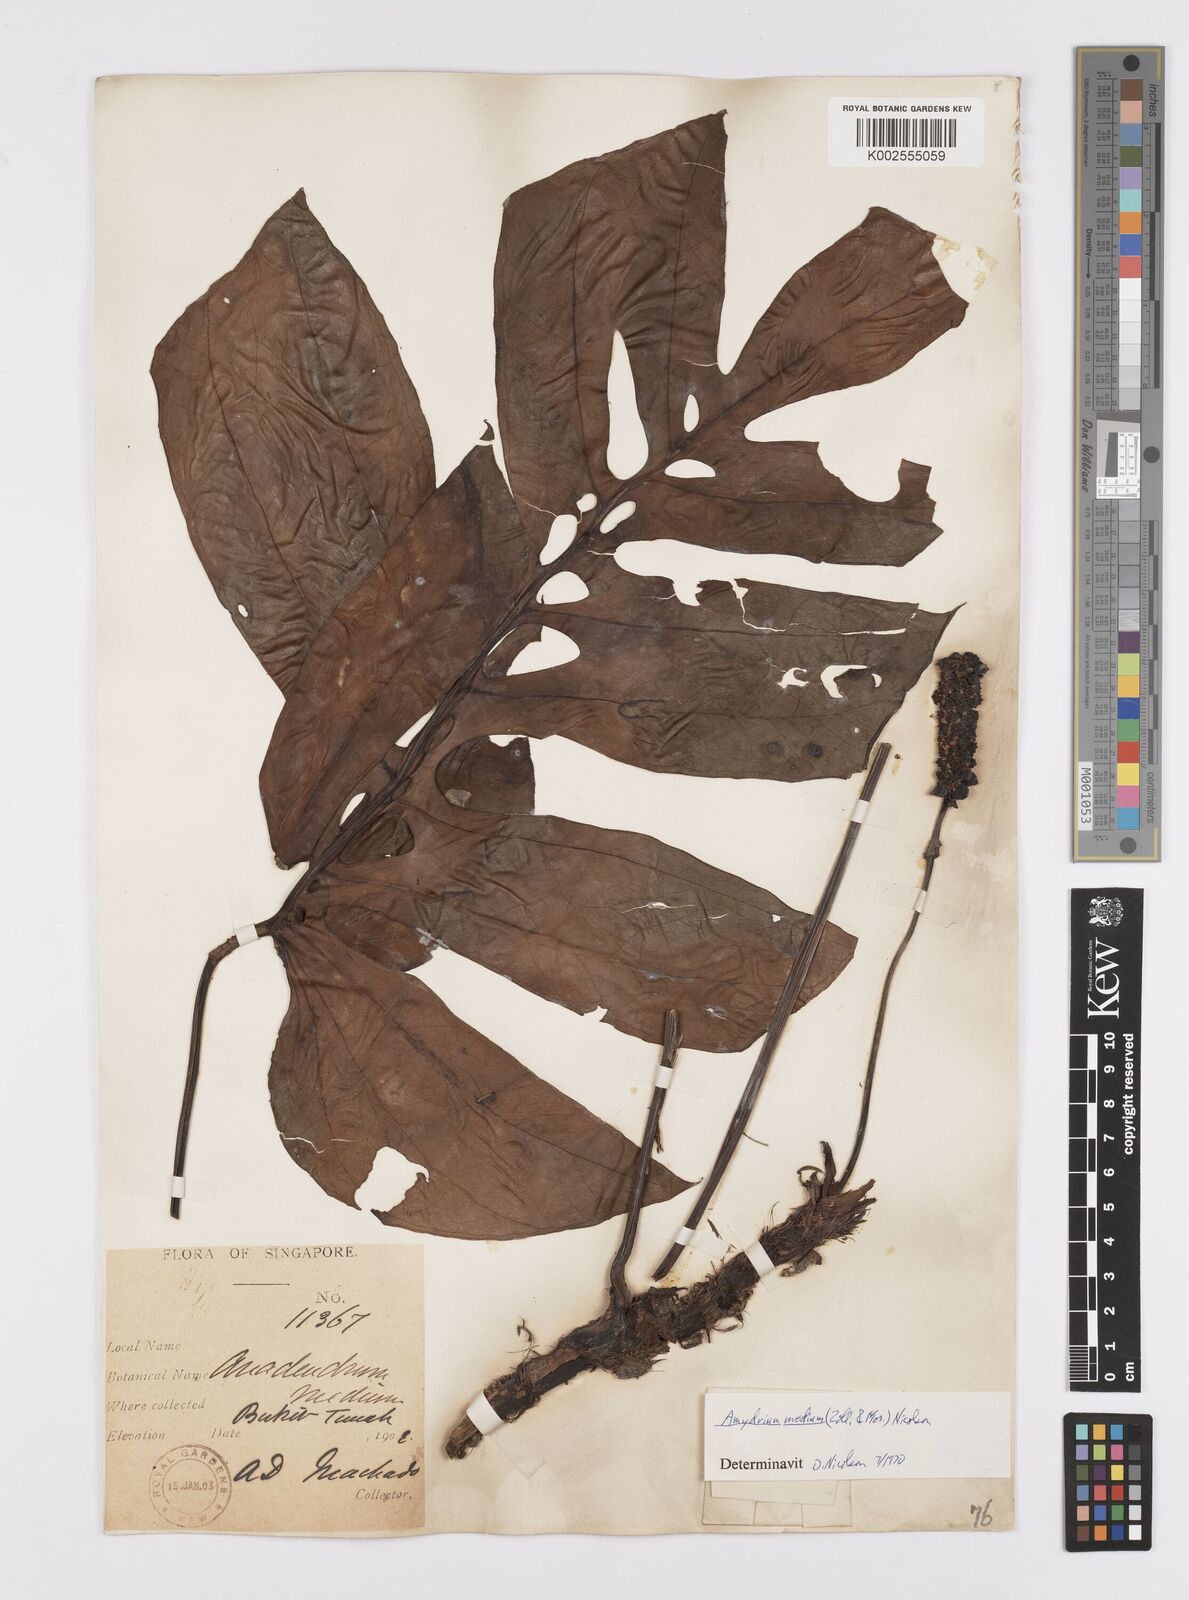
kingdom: Plantae
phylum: Tracheophyta
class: Liliopsida
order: Alismatales
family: Araceae
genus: Amydrium
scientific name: Amydrium medium
